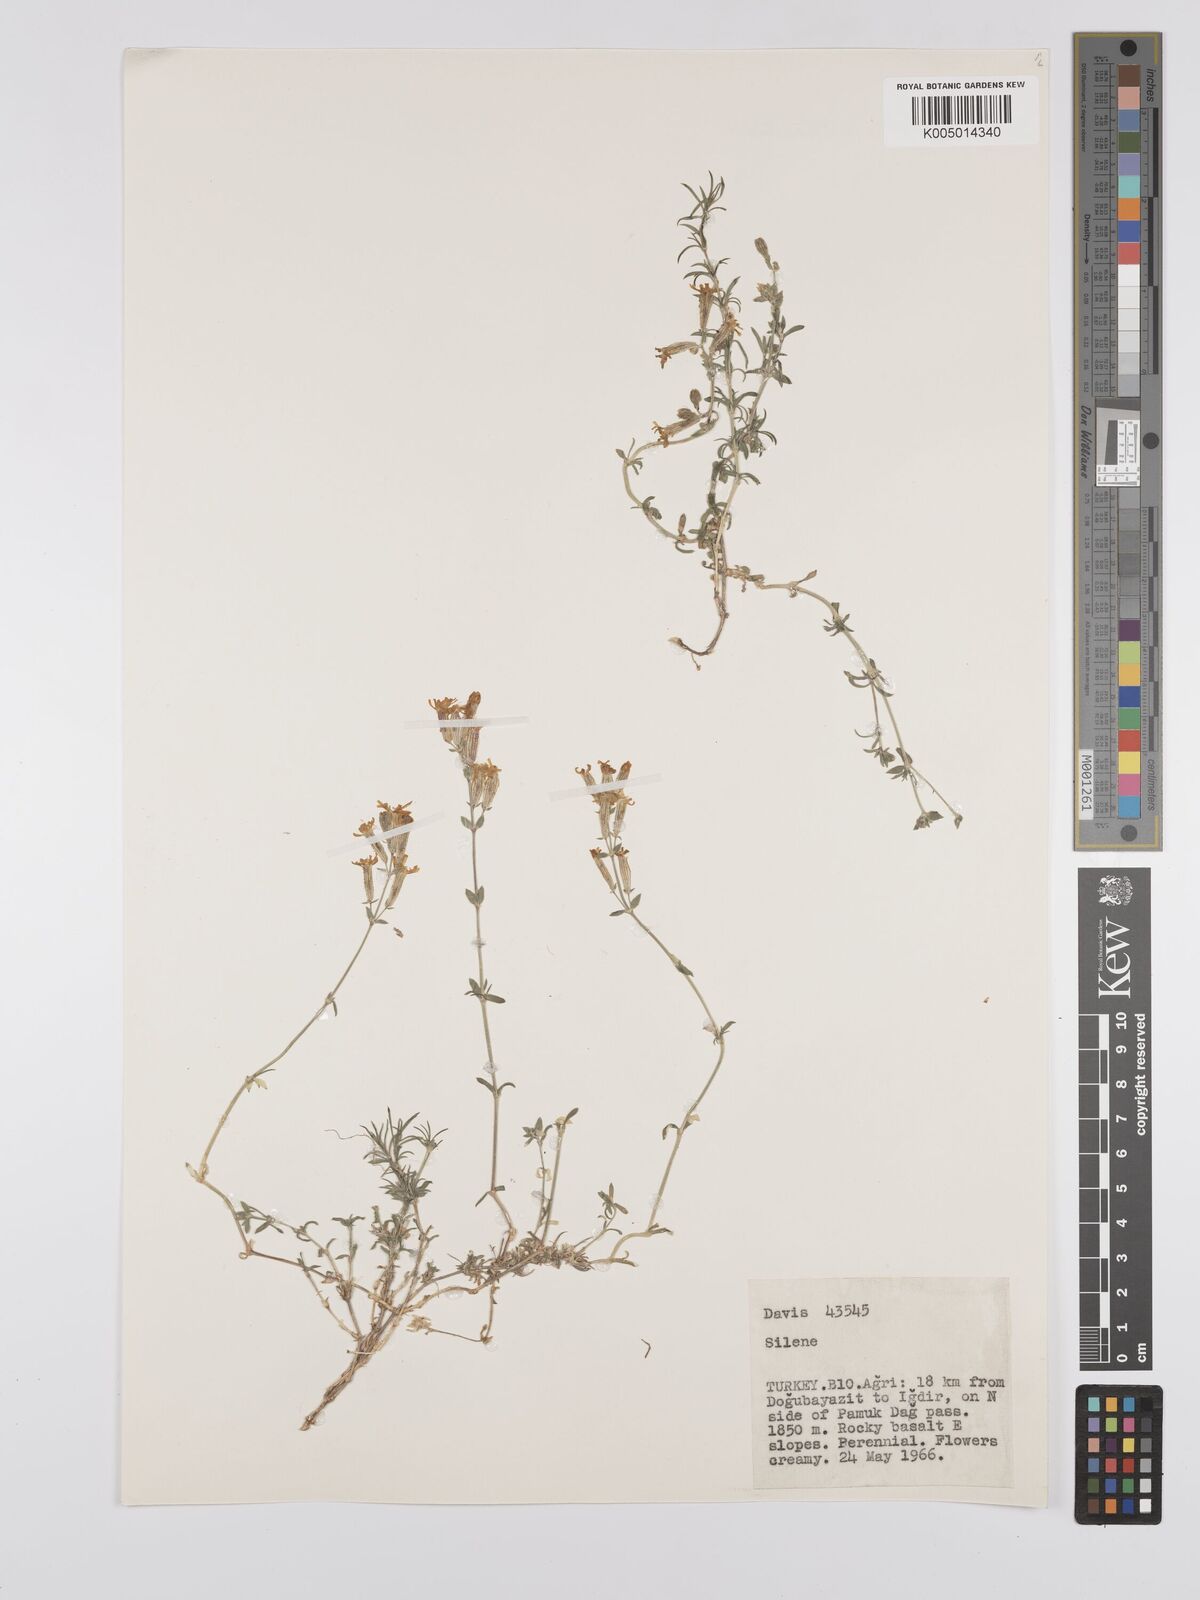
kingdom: Plantae
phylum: Tracheophyta
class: Magnoliopsida
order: Caryophyllales
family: Caryophyllaceae
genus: Silene
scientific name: Silene
